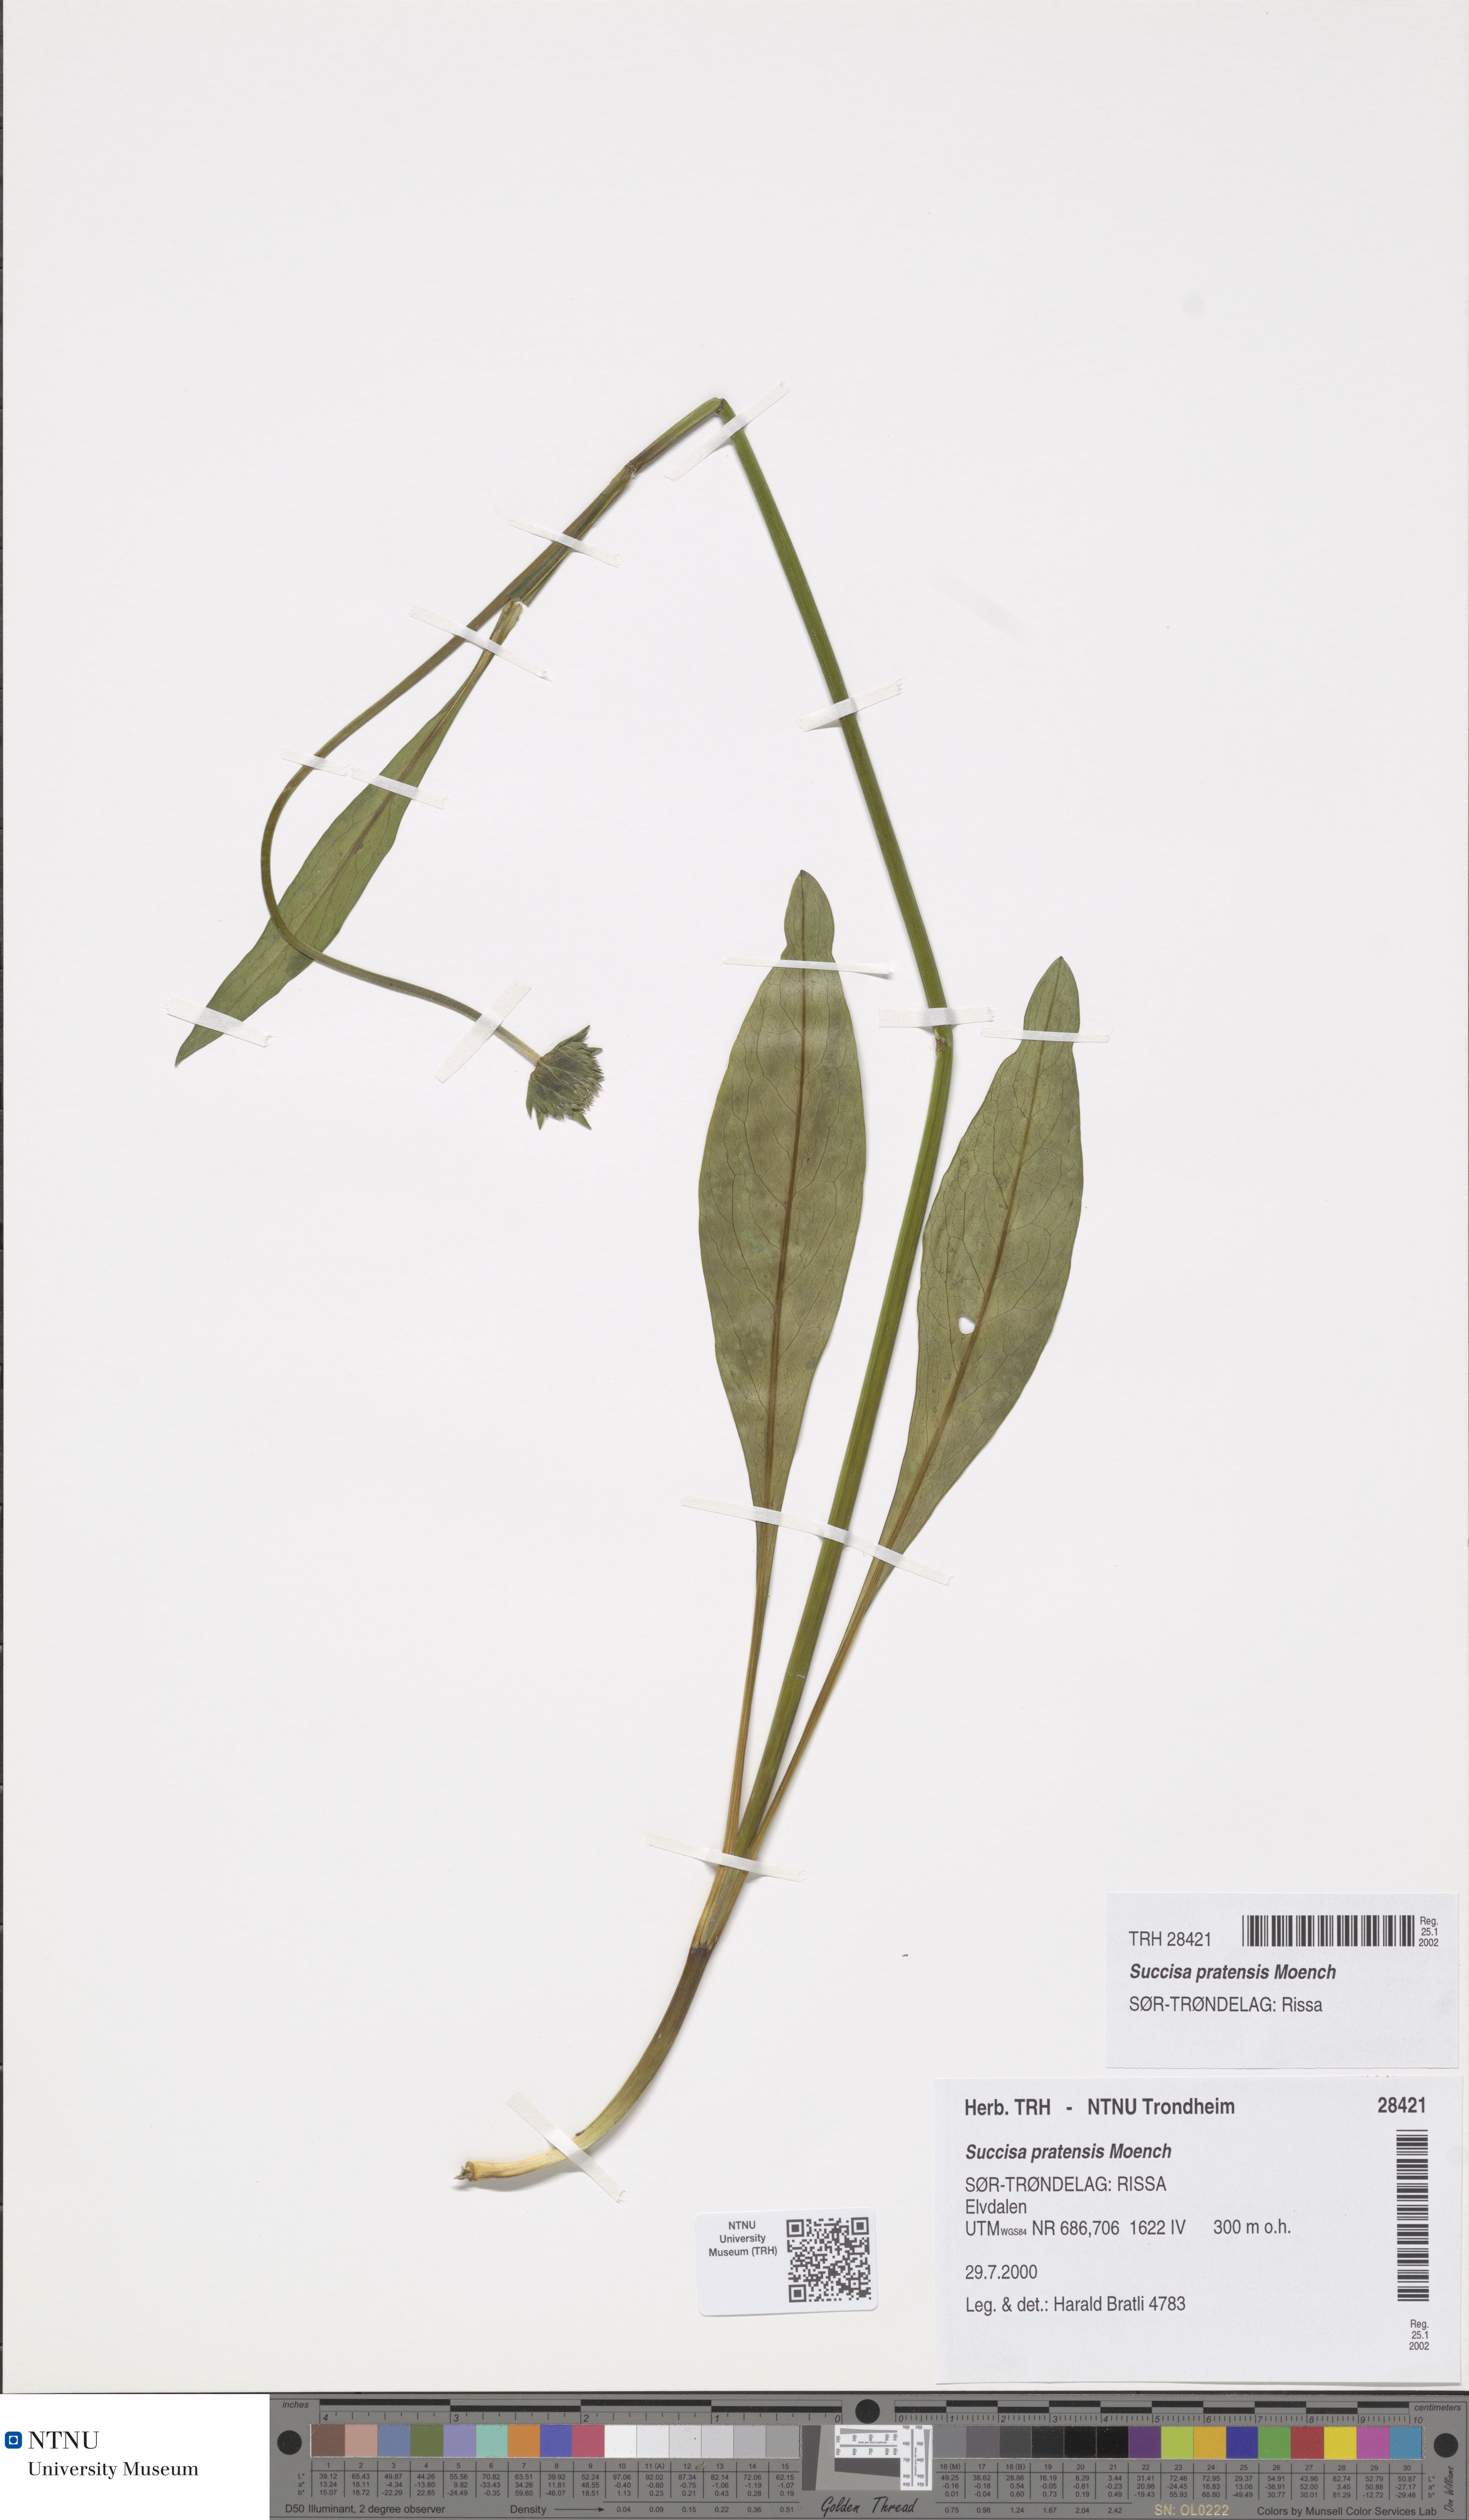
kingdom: Plantae
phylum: Tracheophyta
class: Magnoliopsida
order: Dipsacales
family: Caprifoliaceae
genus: Succisa
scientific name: Succisa pratensis
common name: Devil's-bit
